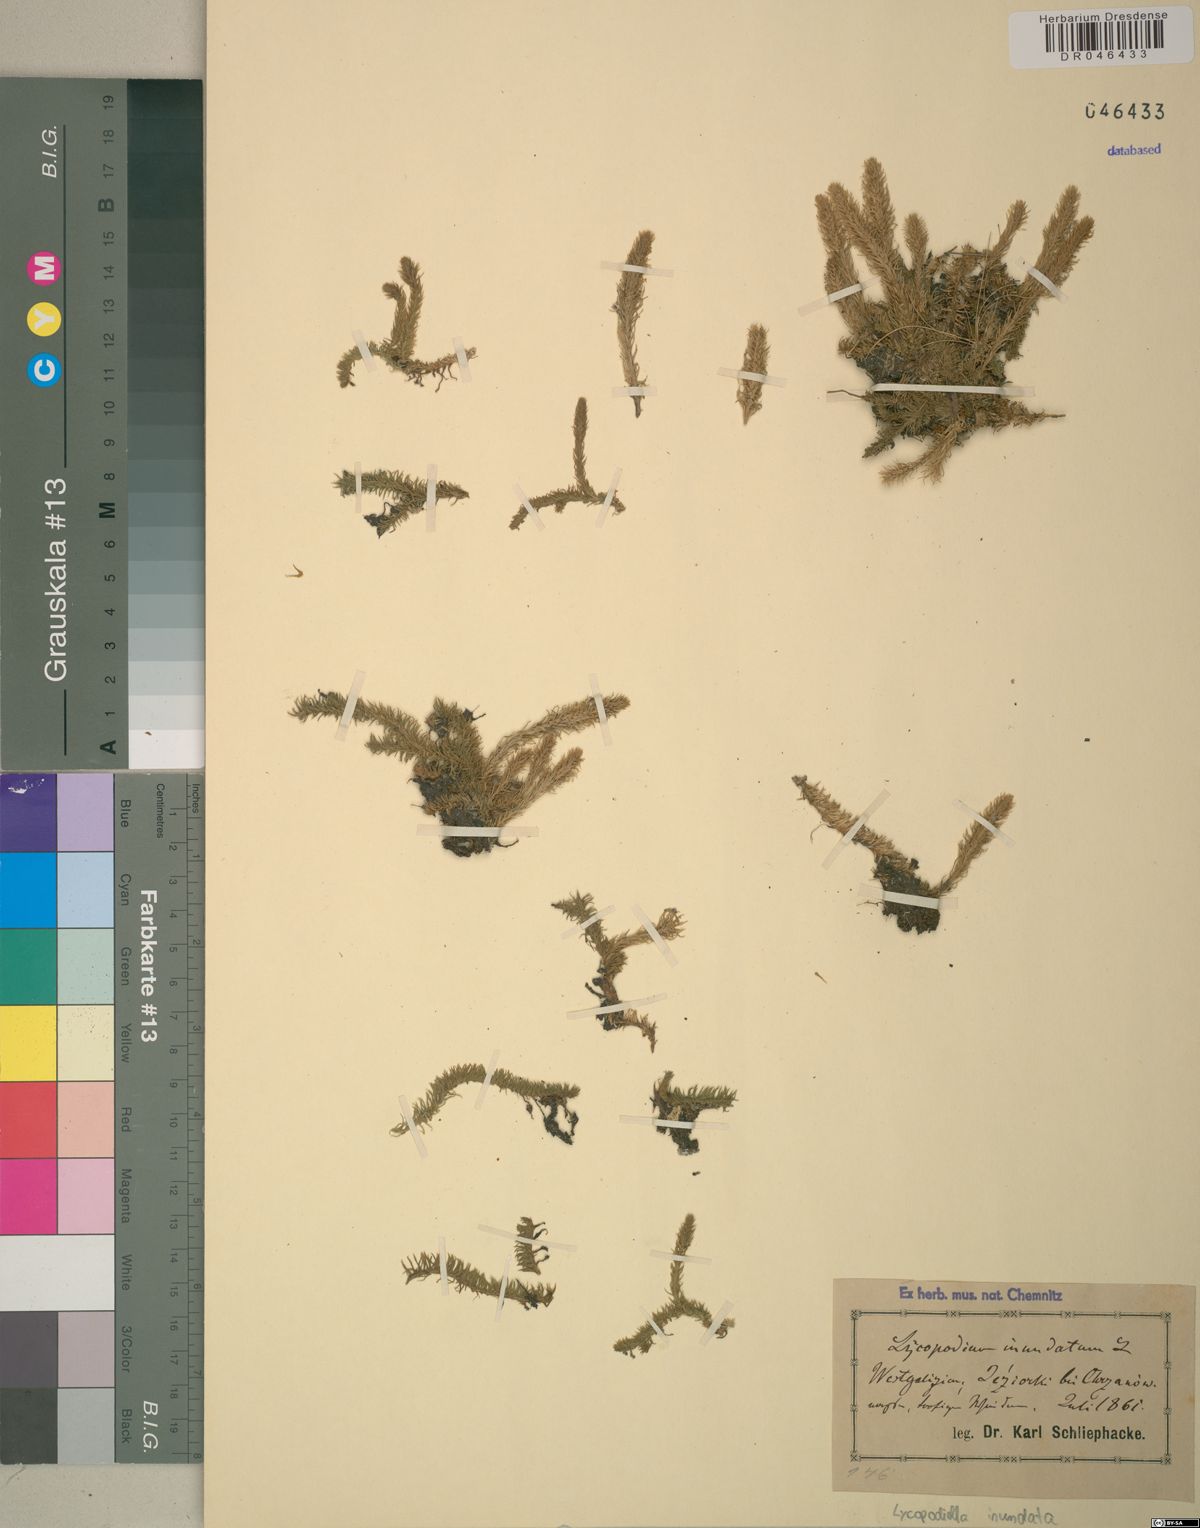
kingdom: Plantae
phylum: Tracheophyta
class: Lycopodiopsida
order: Lycopodiales
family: Lycopodiaceae
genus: Lycopodiella
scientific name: Lycopodiella inundata
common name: Marsh clubmoss
